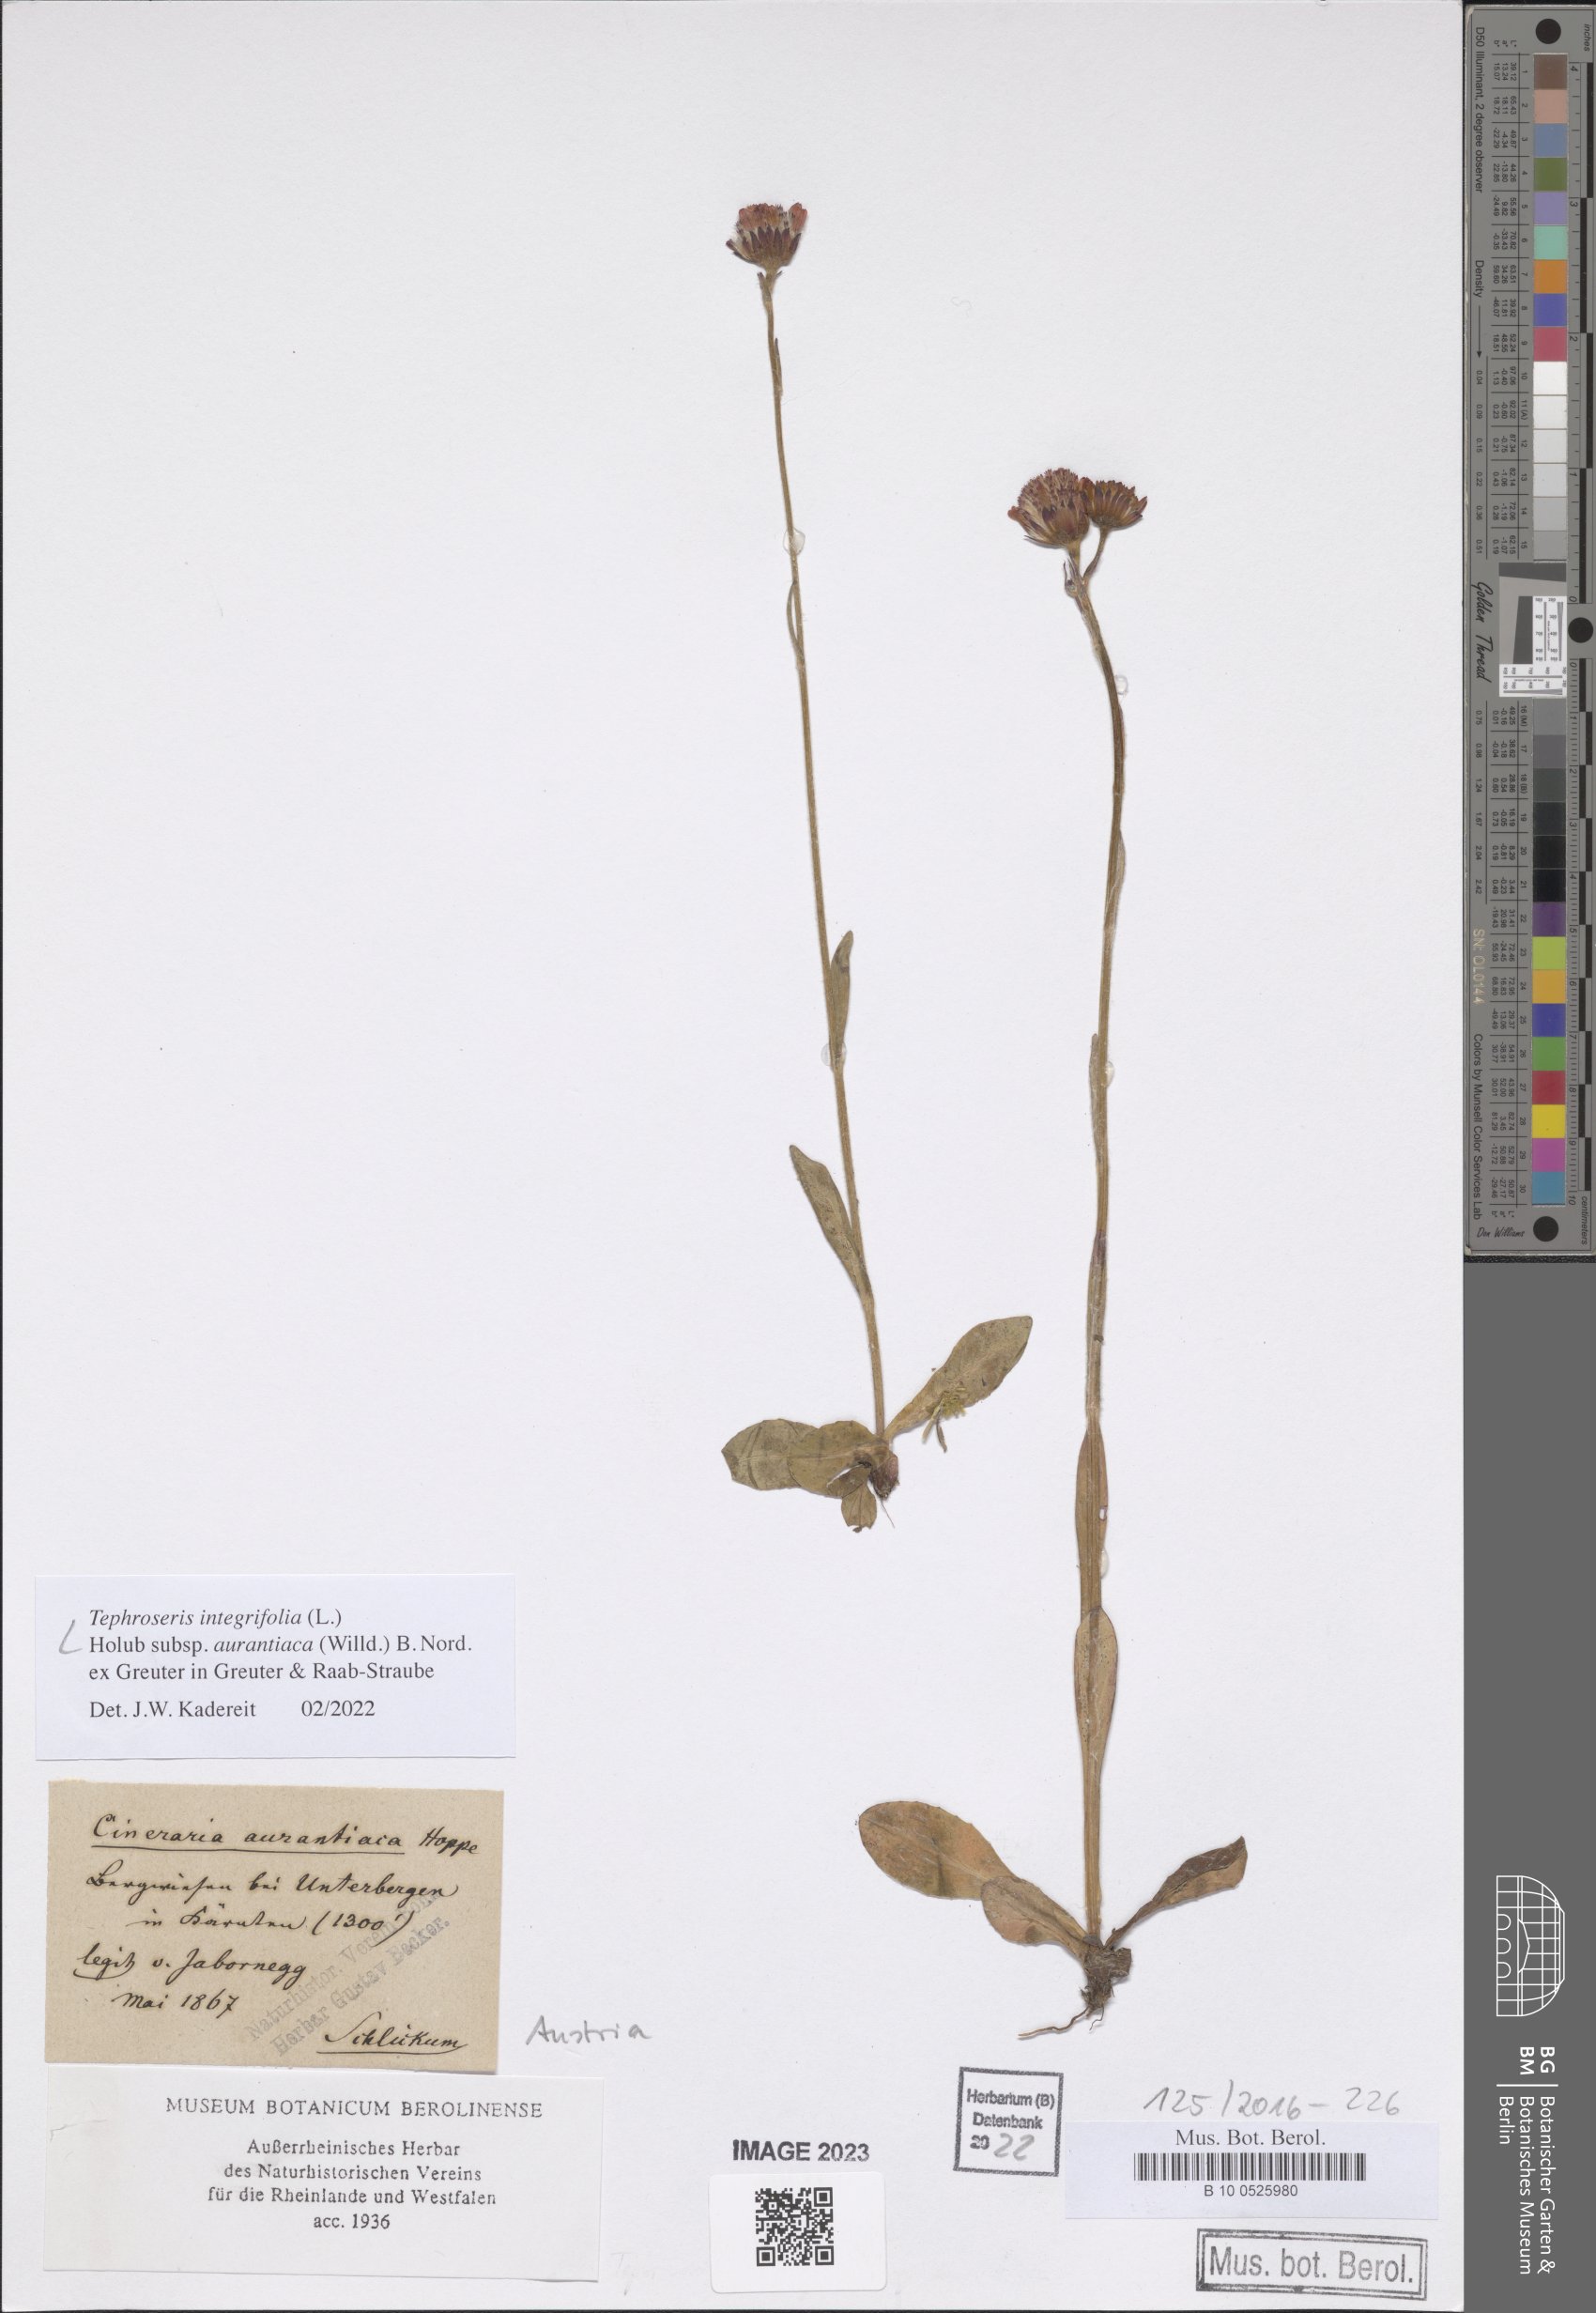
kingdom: Plantae
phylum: Tracheophyta
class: Magnoliopsida
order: Asterales
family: Asteraceae
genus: Tephroseris
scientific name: Tephroseris aurantiaca
